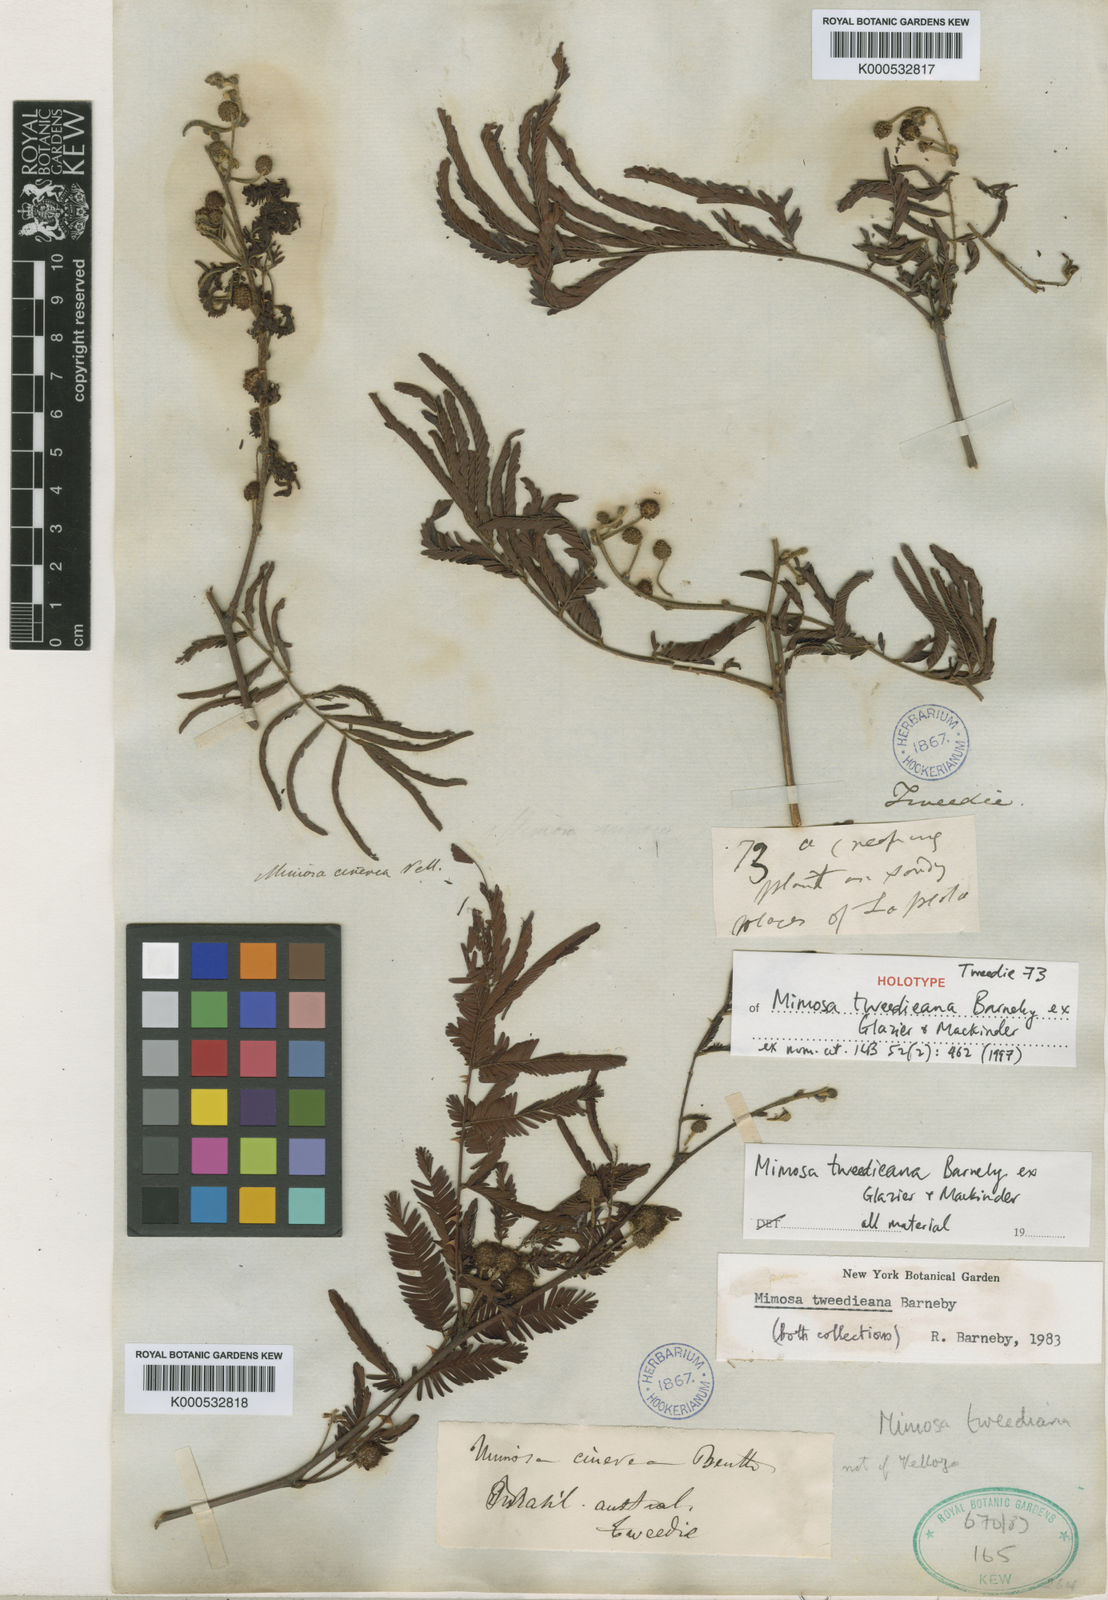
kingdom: Plantae
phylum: Tracheophyta
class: Magnoliopsida
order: Fabales
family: Fabaceae
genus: Mimosa
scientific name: Mimosa tweedieana
